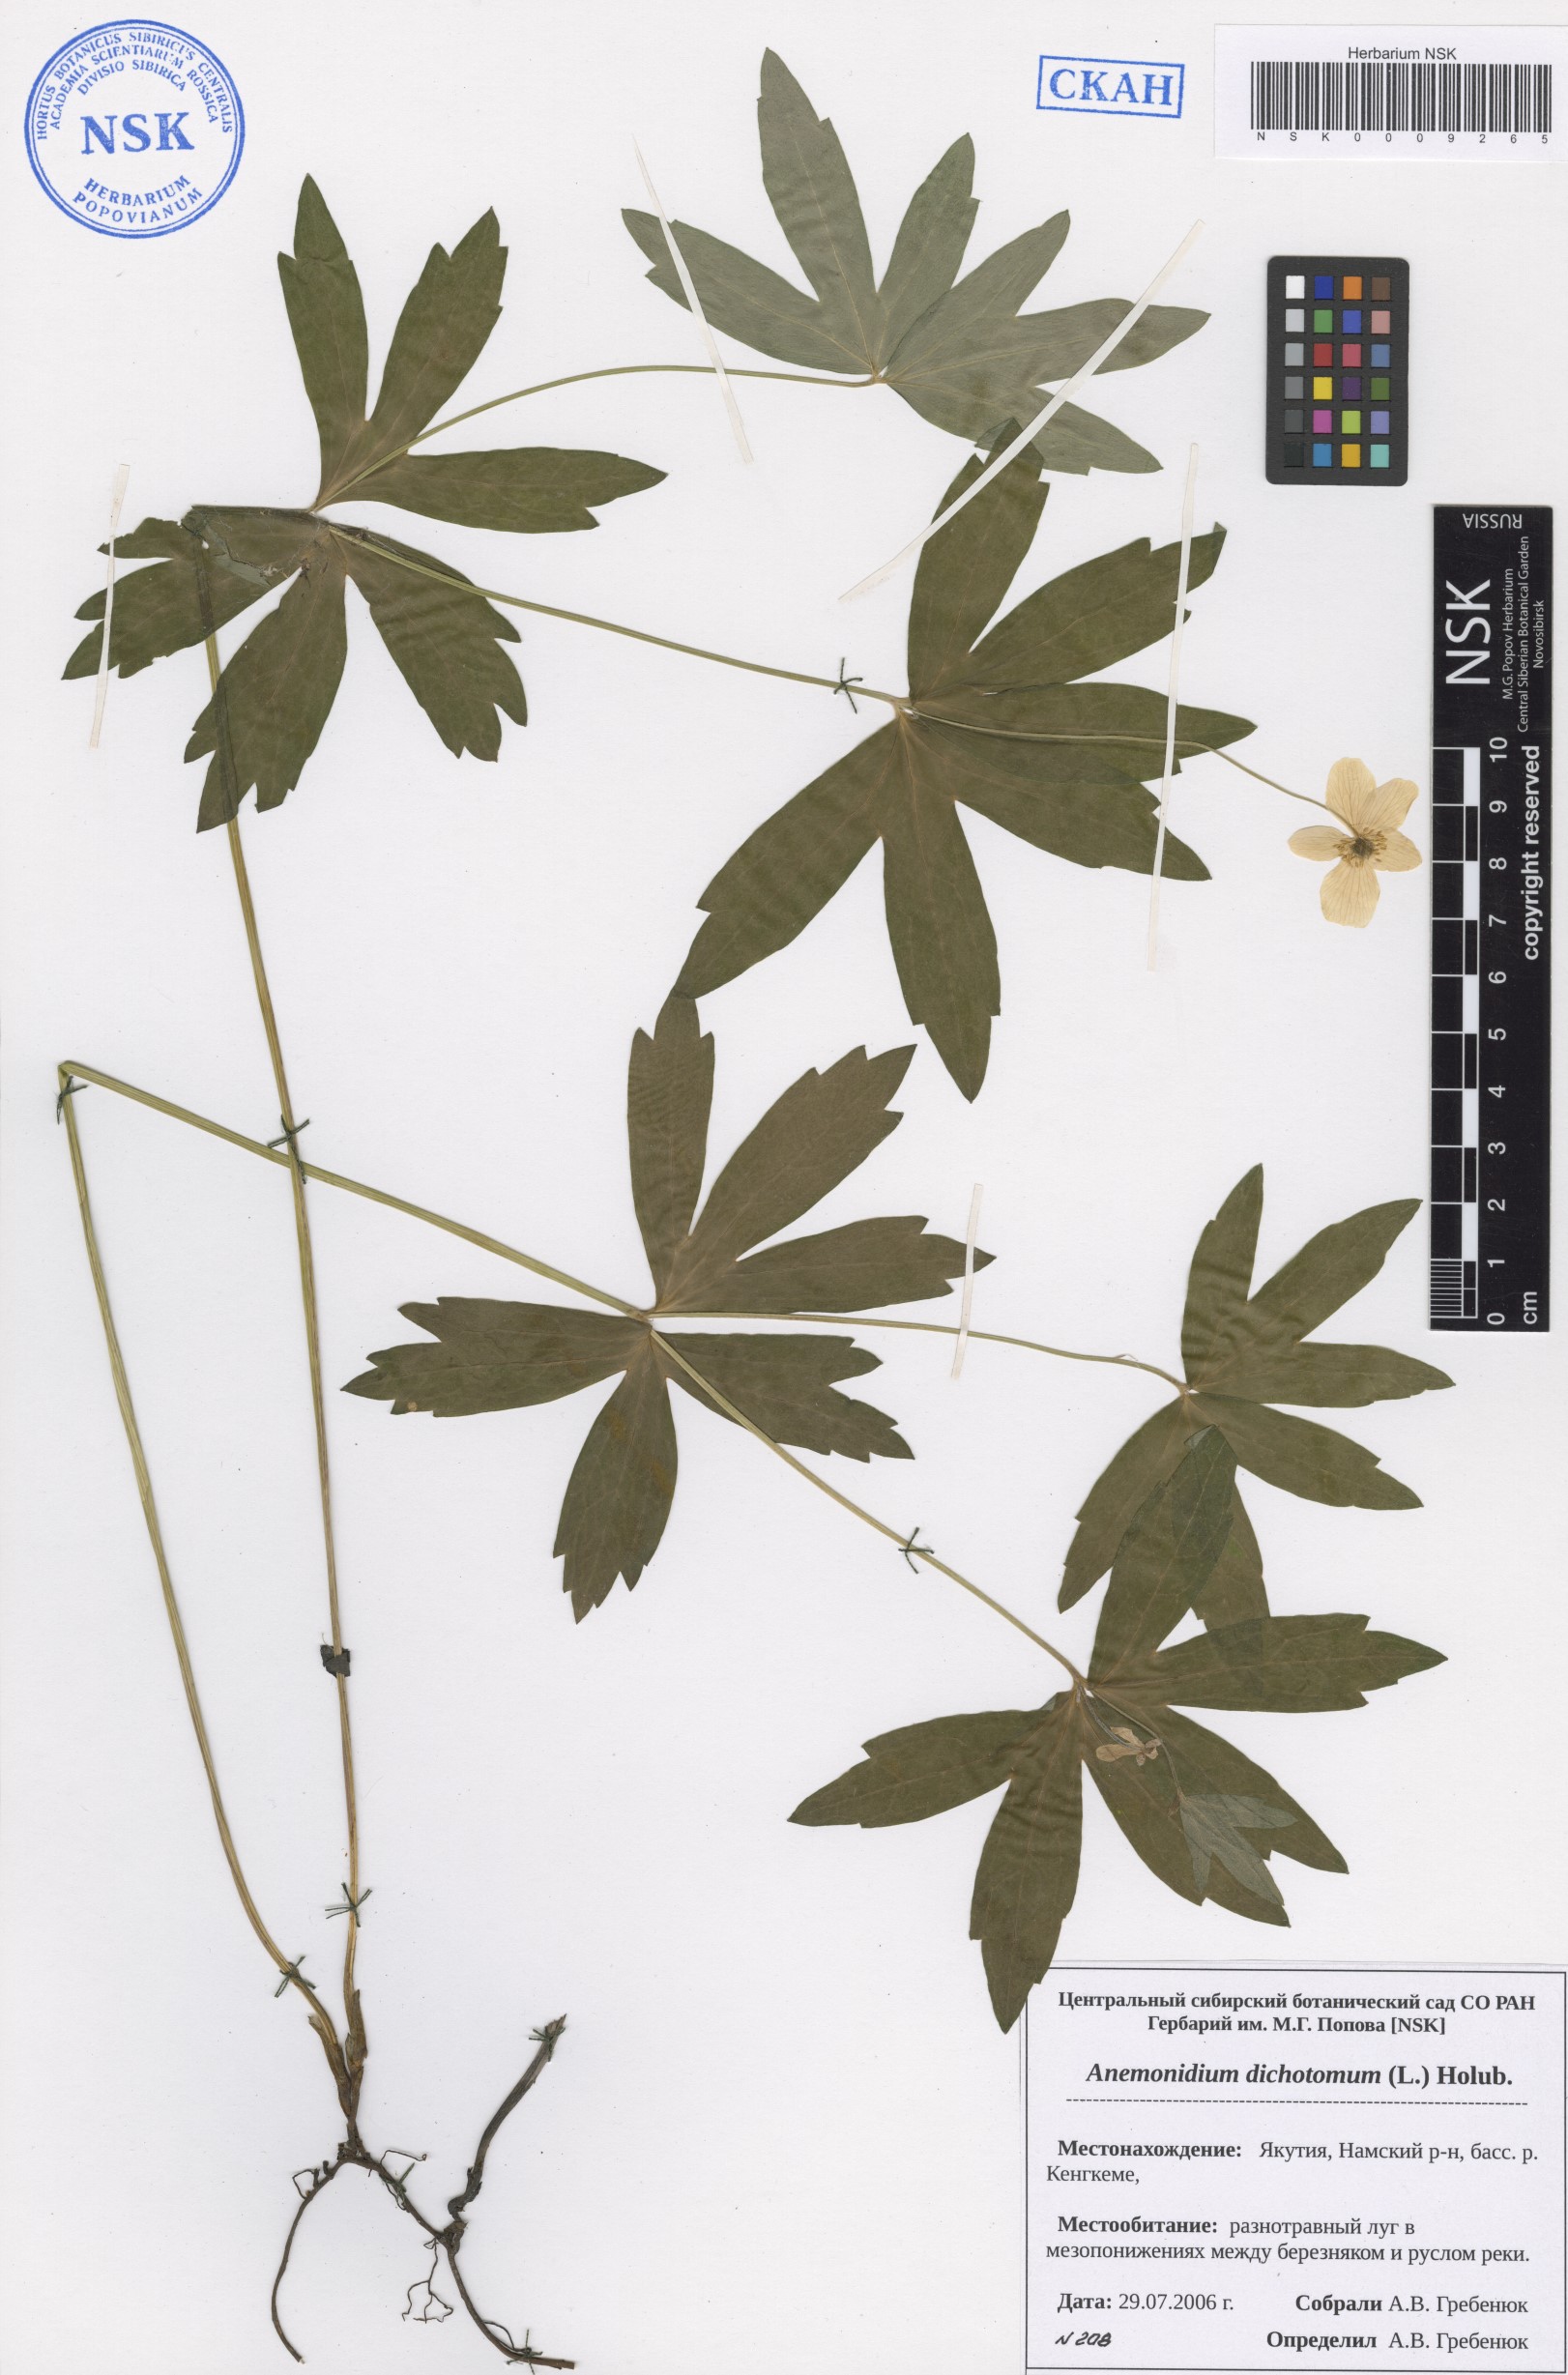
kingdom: Plantae
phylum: Tracheophyta
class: Magnoliopsida
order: Ranunculales
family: Ranunculaceae
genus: Anemonastrum
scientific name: Anemonastrum dichotomum
